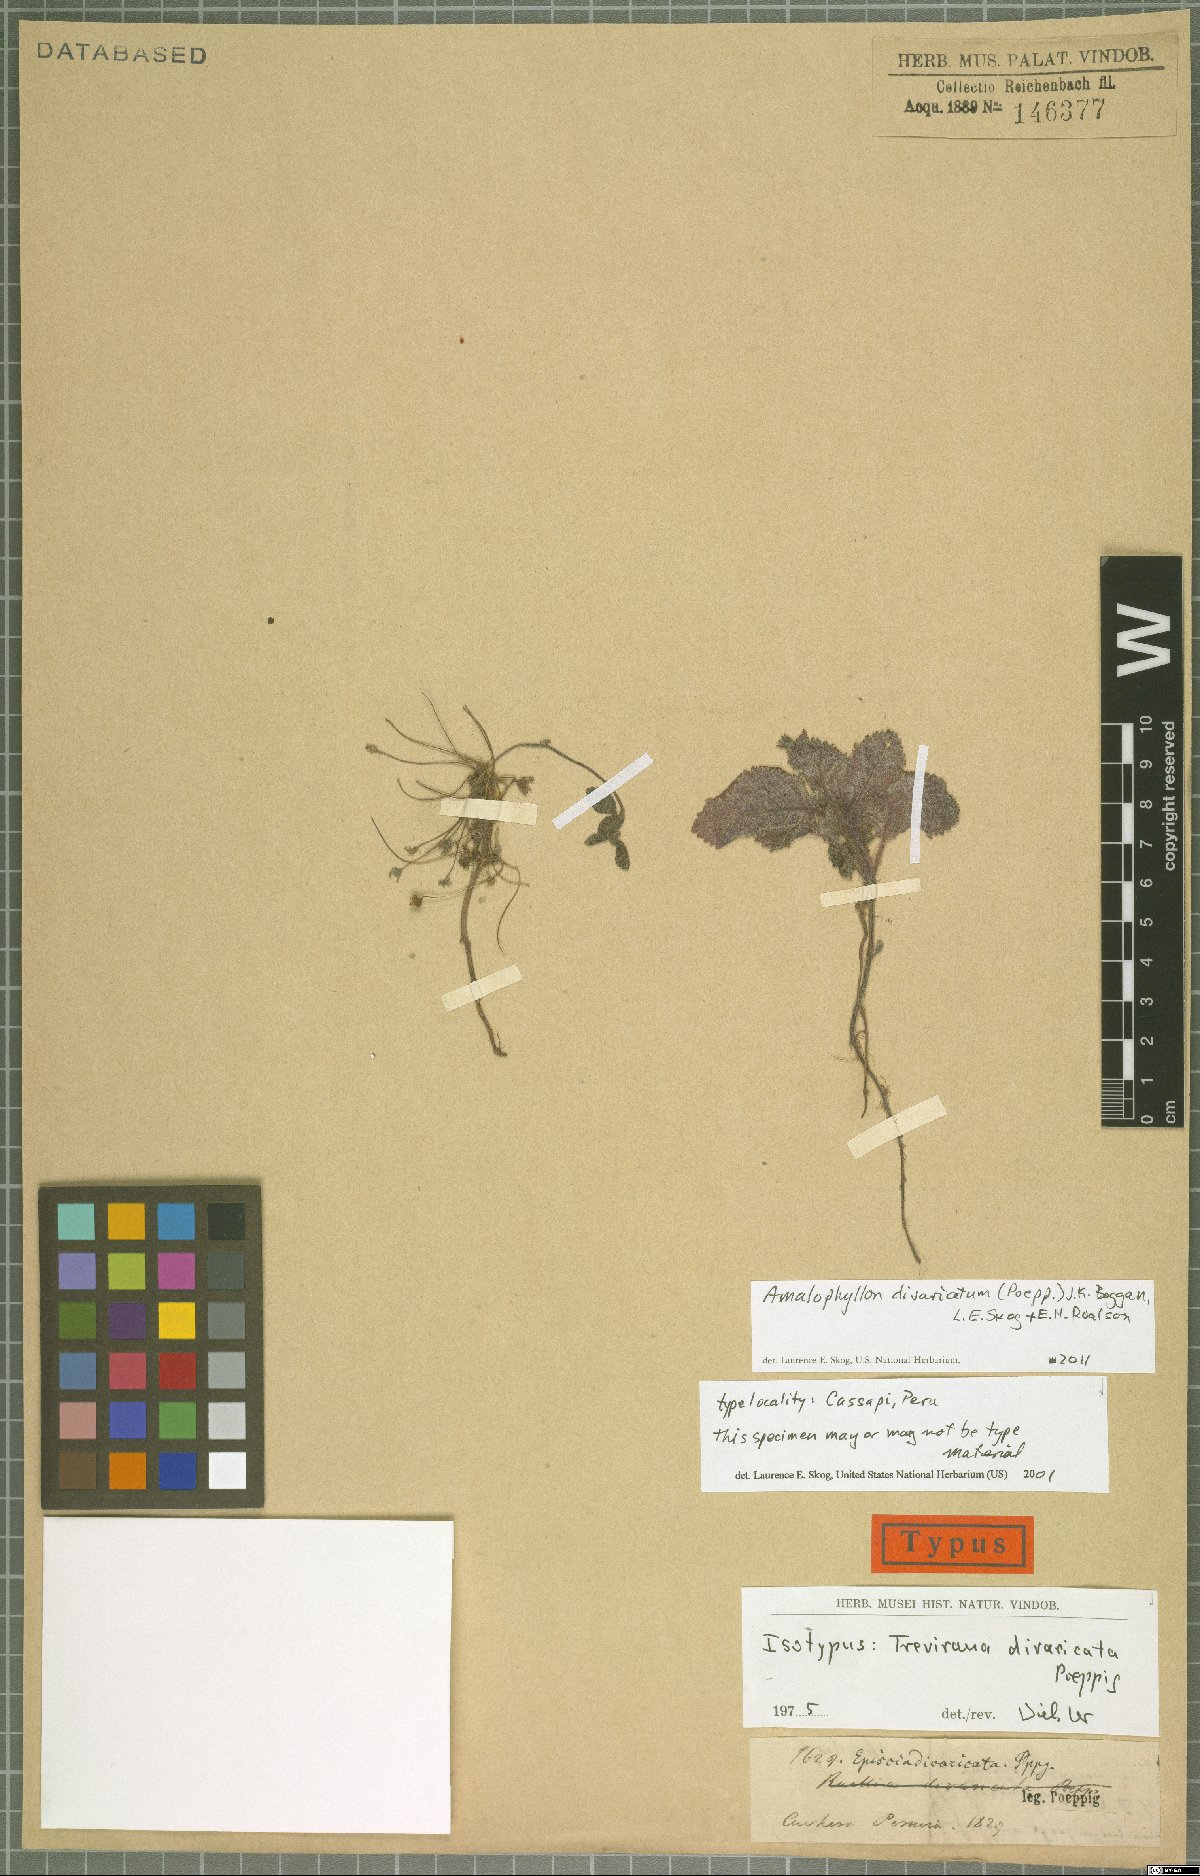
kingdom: Plantae
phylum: Tracheophyta
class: Magnoliopsida
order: Lamiales
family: Gesneriaceae
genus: Amalophyllon
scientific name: Amalophyllon divaricatum
